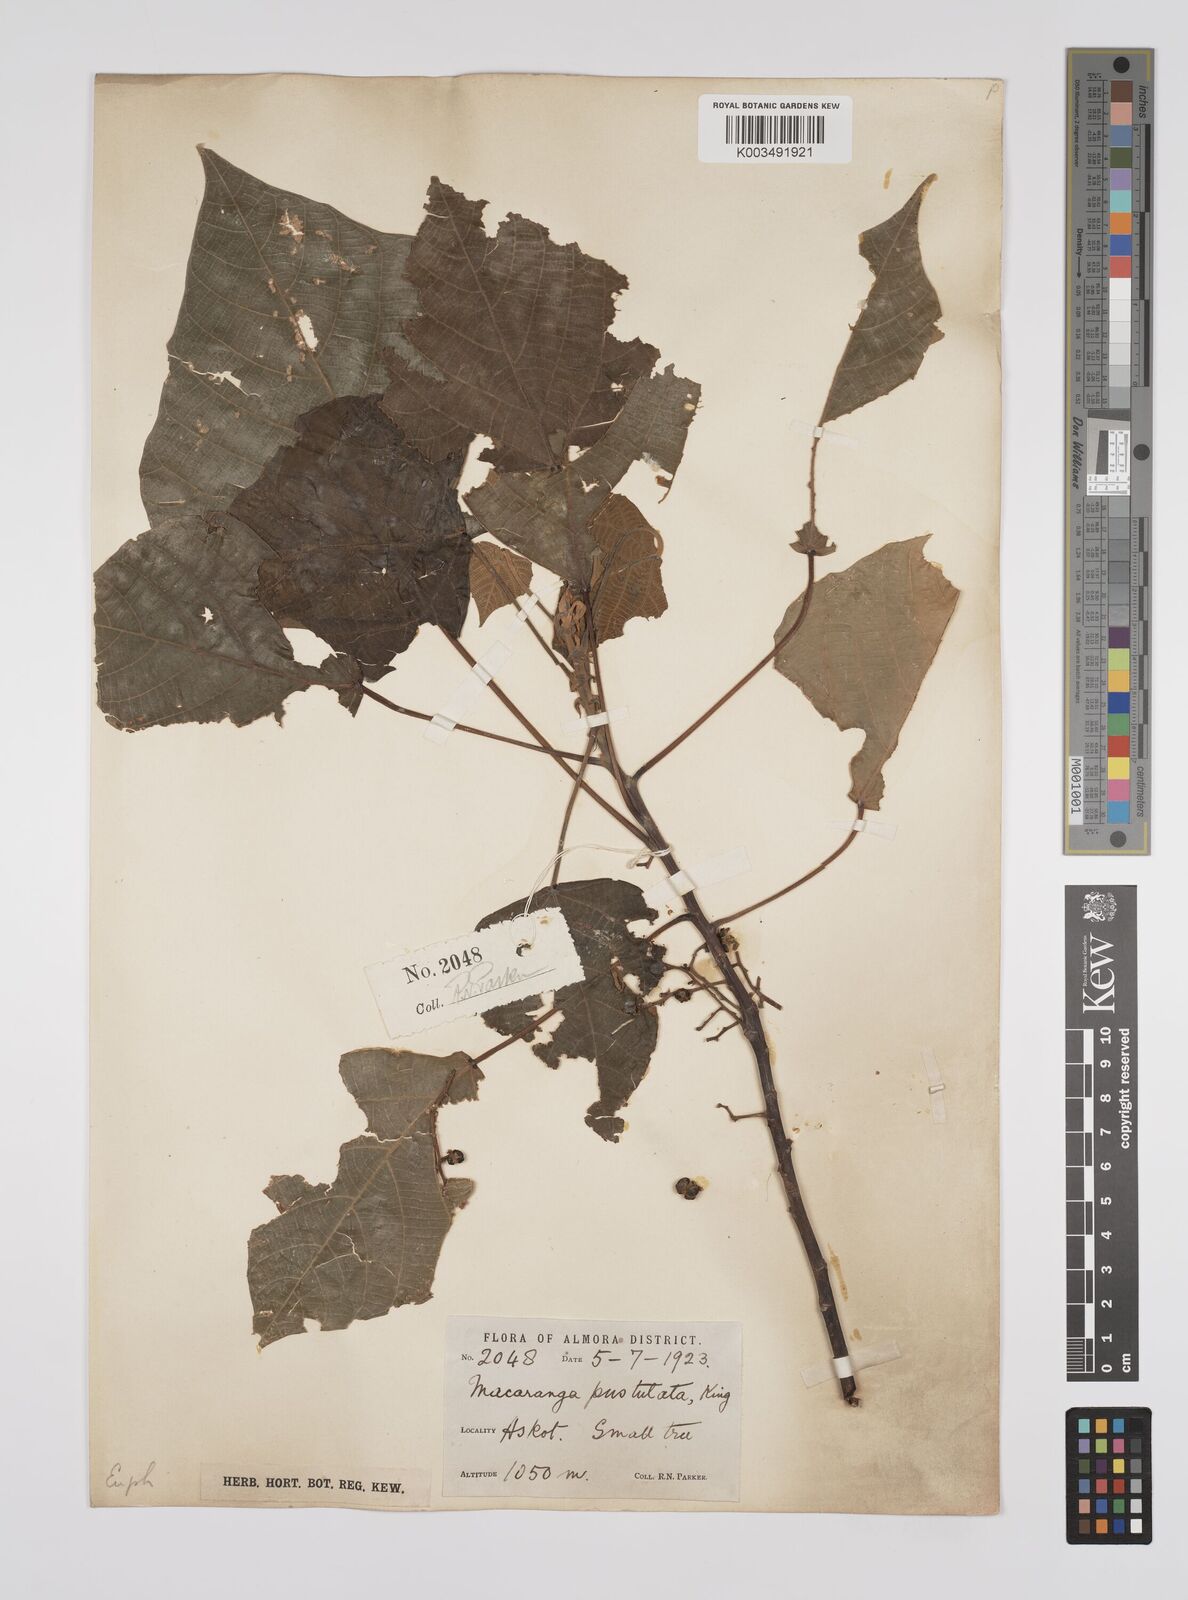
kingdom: Plantae
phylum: Tracheophyta
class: Magnoliopsida
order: Malpighiales
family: Euphorbiaceae
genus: Macaranga
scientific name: Macaranga denticulata
